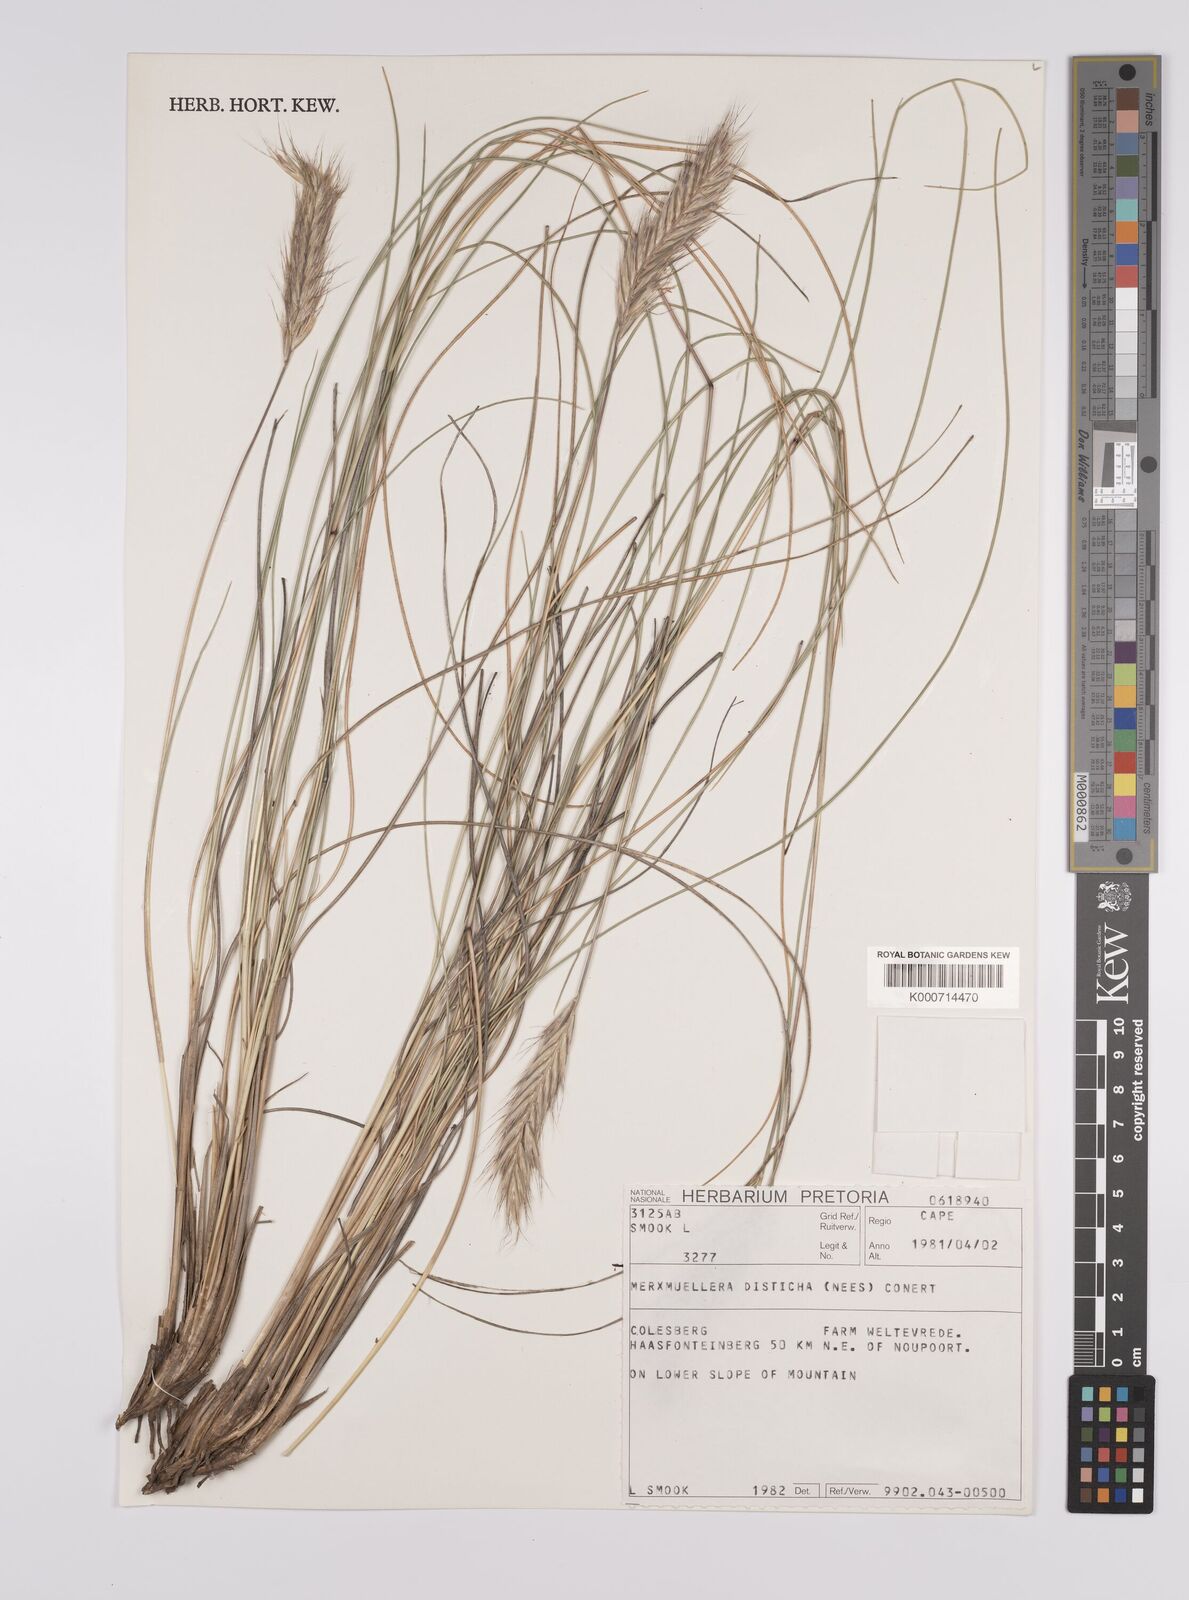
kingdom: Plantae
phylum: Tracheophyta
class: Liliopsida
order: Poales
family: Poaceae
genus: Tenaxia
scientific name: Tenaxia disticha
